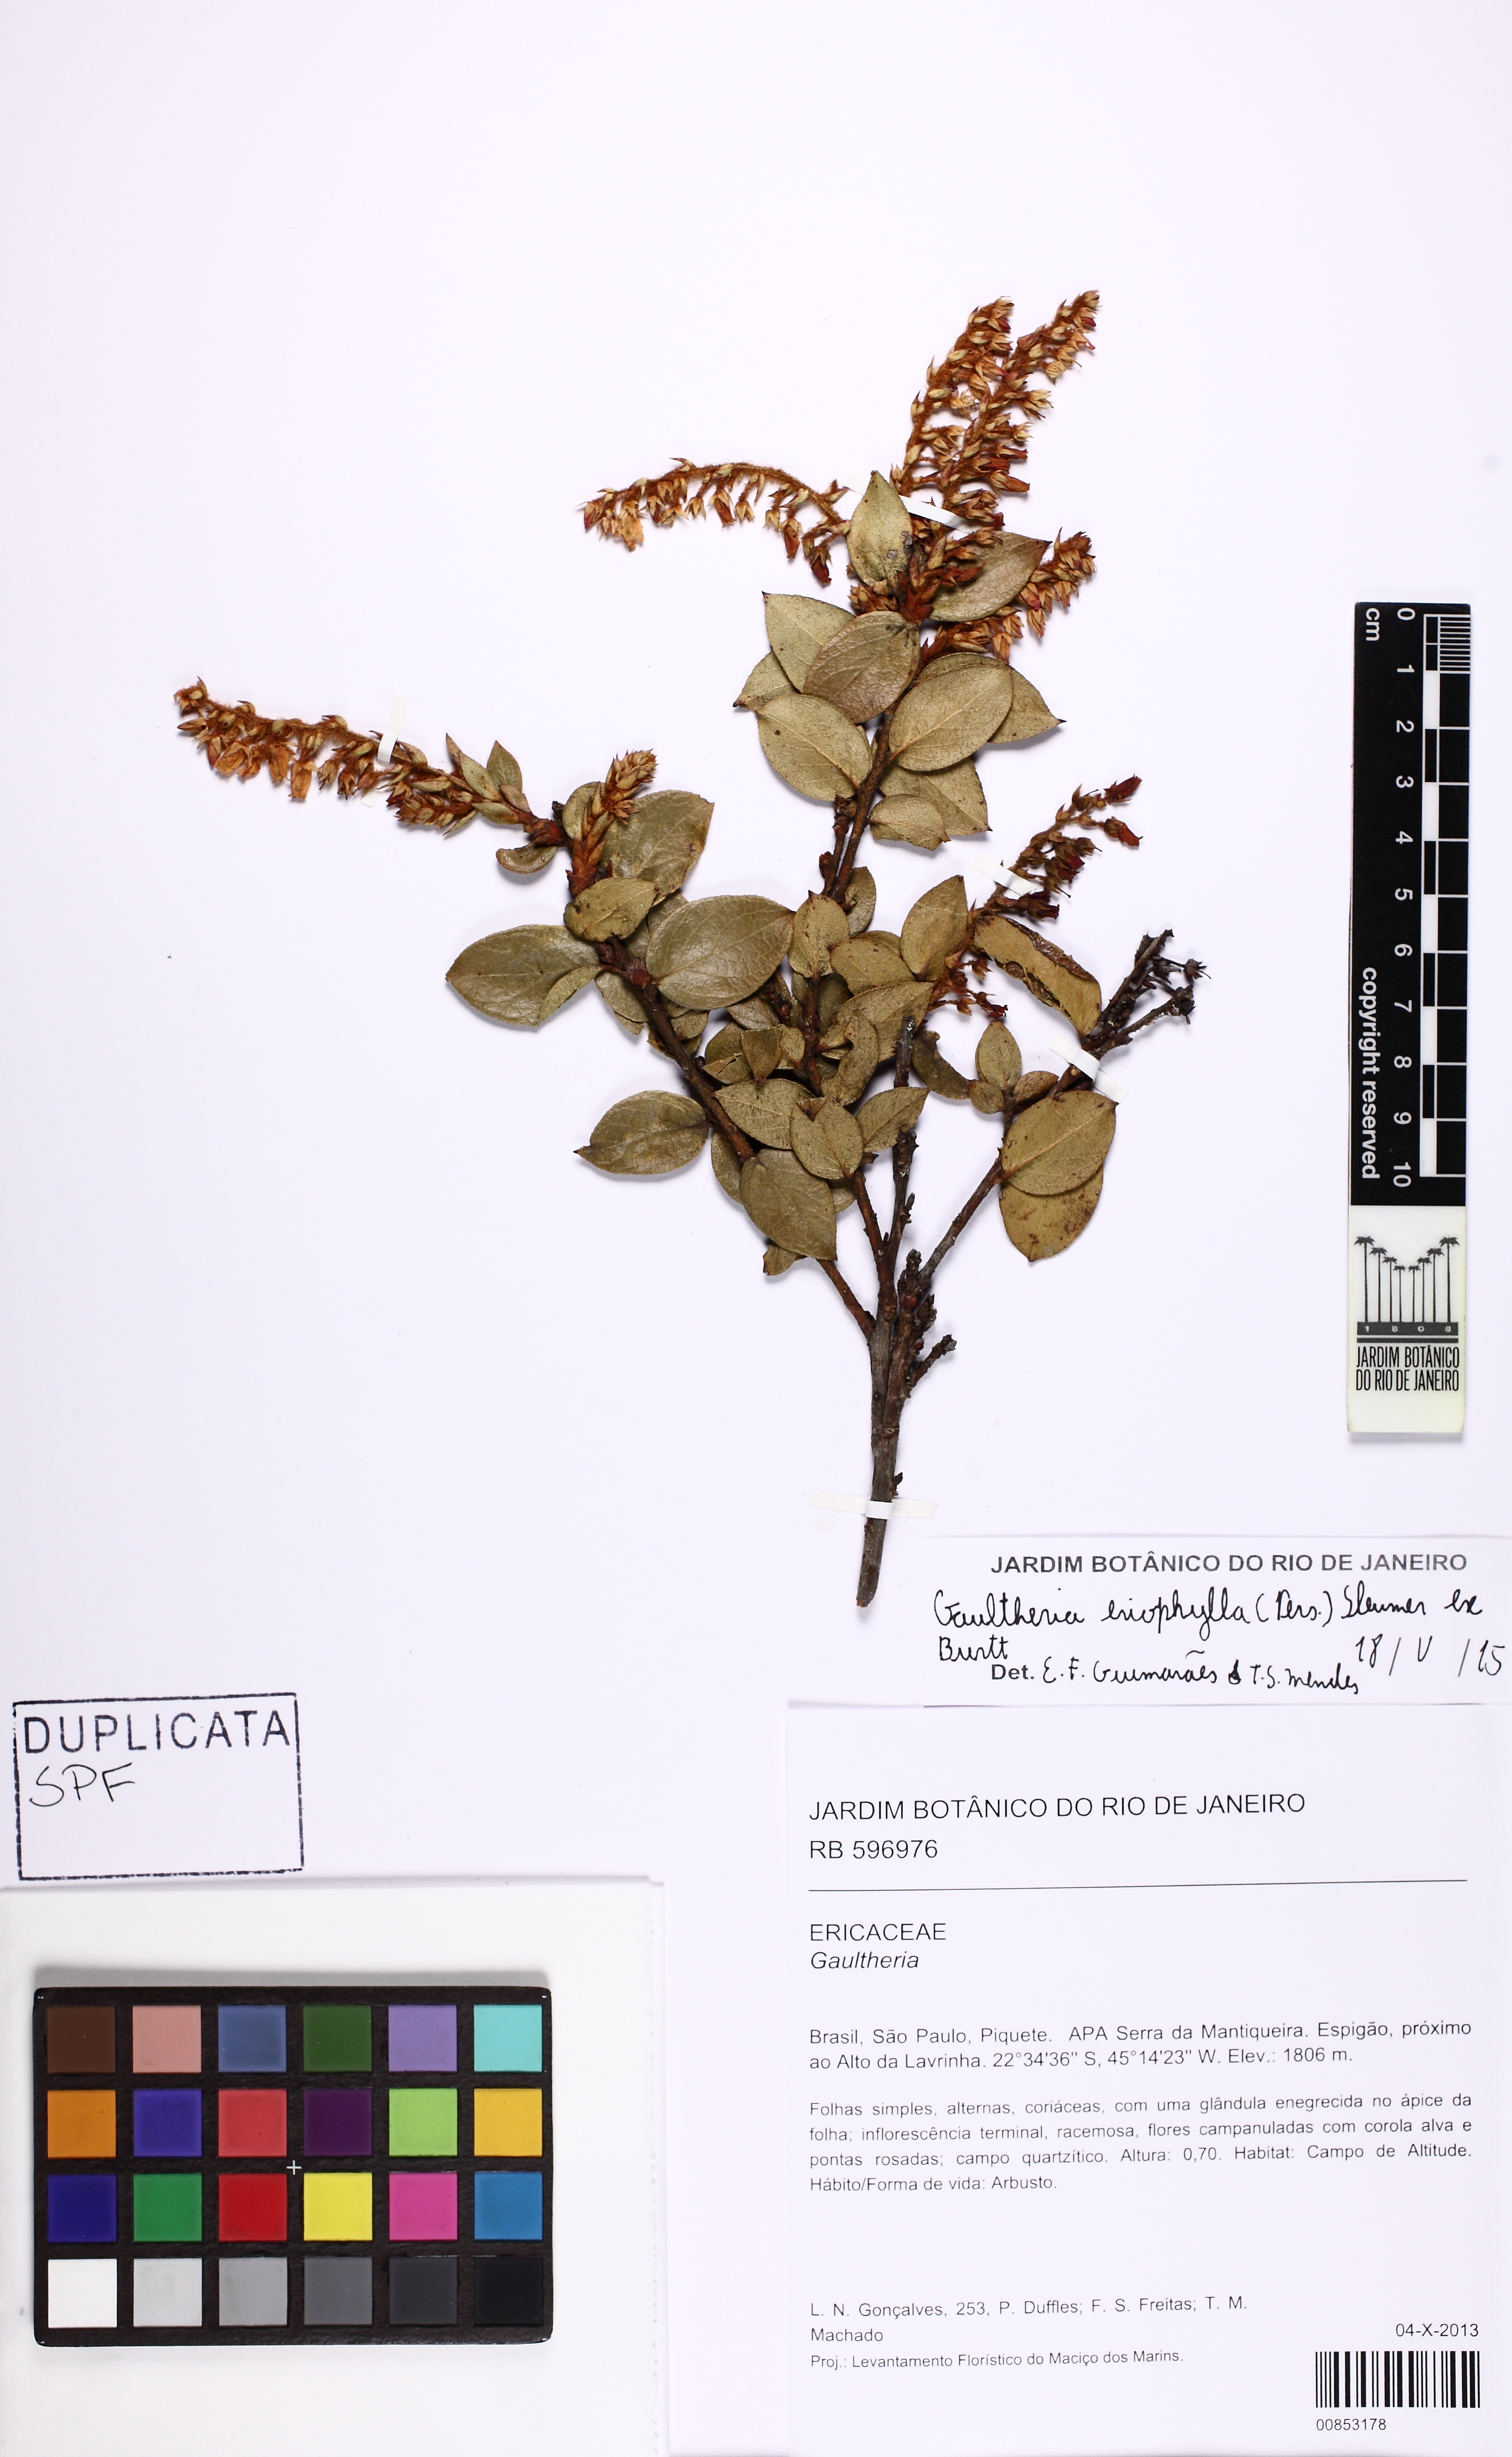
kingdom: Plantae
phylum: Tracheophyta
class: Magnoliopsida
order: Ericales
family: Ericaceae
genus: Gaultheria
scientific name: Gaultheria eriophylla
